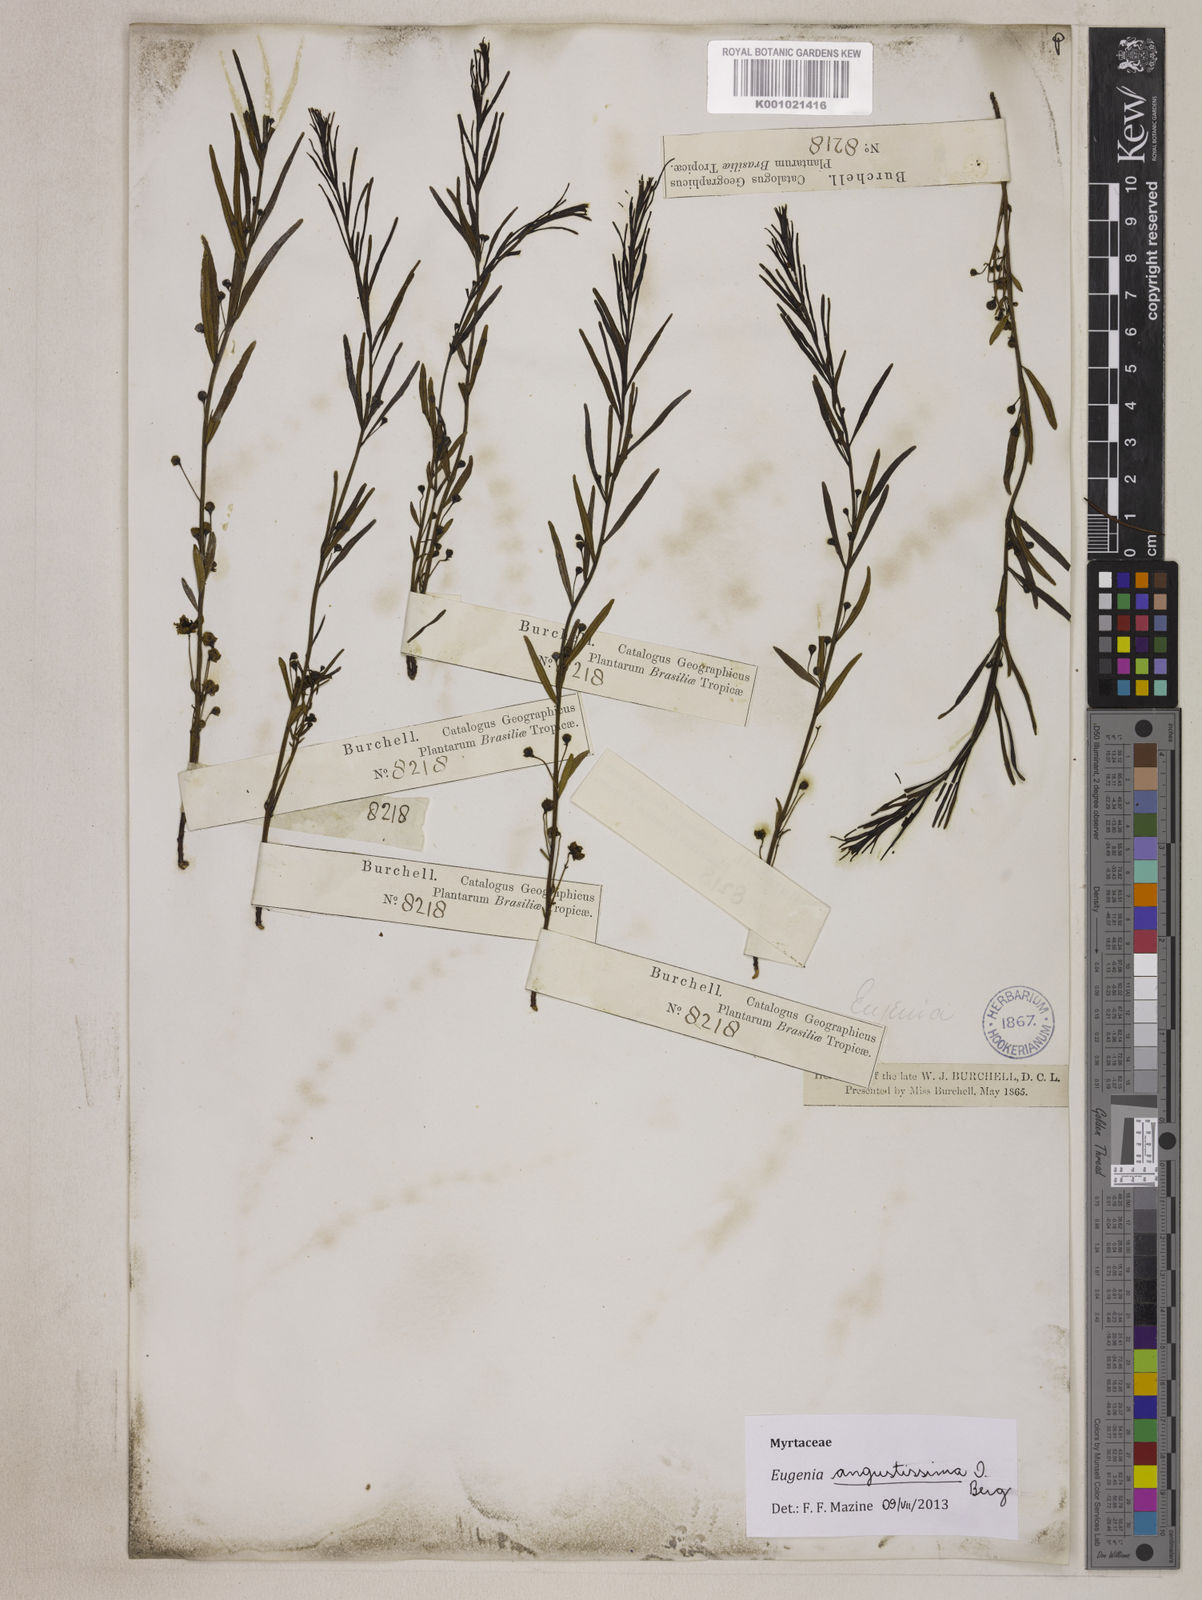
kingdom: Plantae
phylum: Tracheophyta
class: Magnoliopsida
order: Myrtales
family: Myrtaceae
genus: Eugenia
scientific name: Eugenia angustissima
